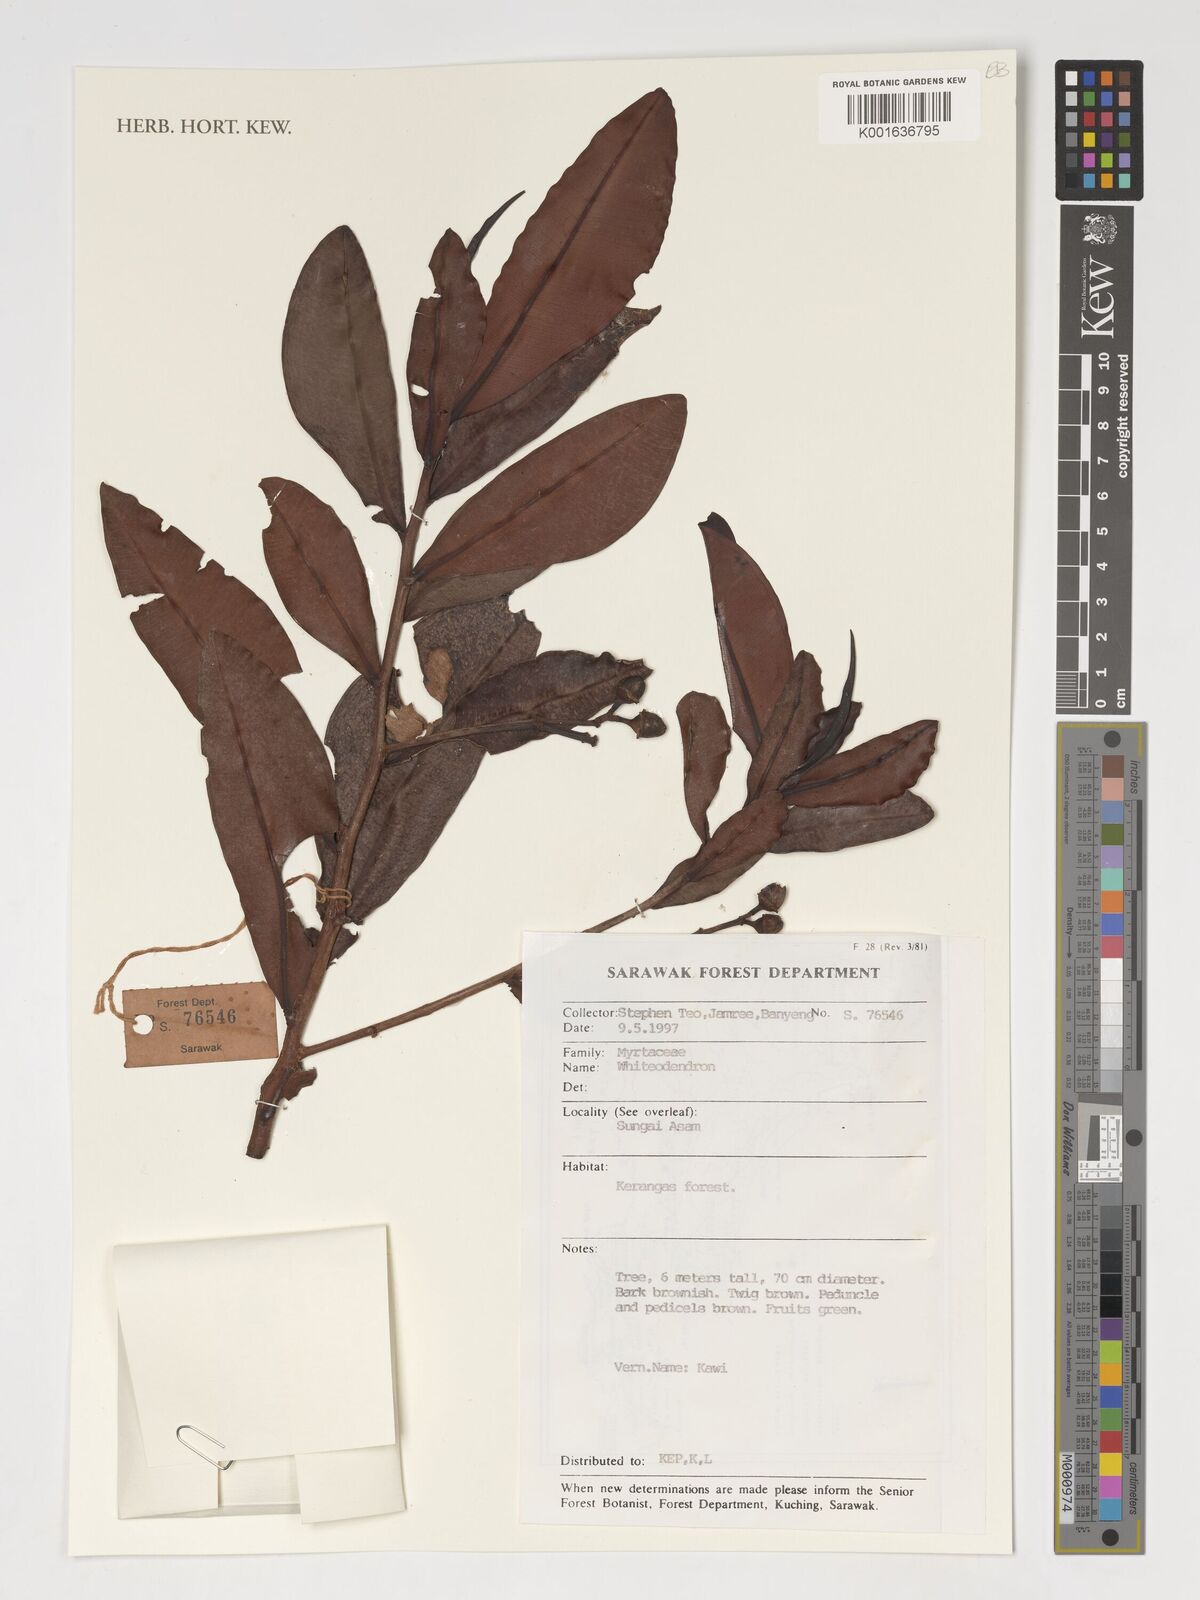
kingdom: Plantae
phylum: Tracheophyta
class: Magnoliopsida
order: Myrtales
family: Myrtaceae
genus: Whiteodendron
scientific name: Whiteodendron
